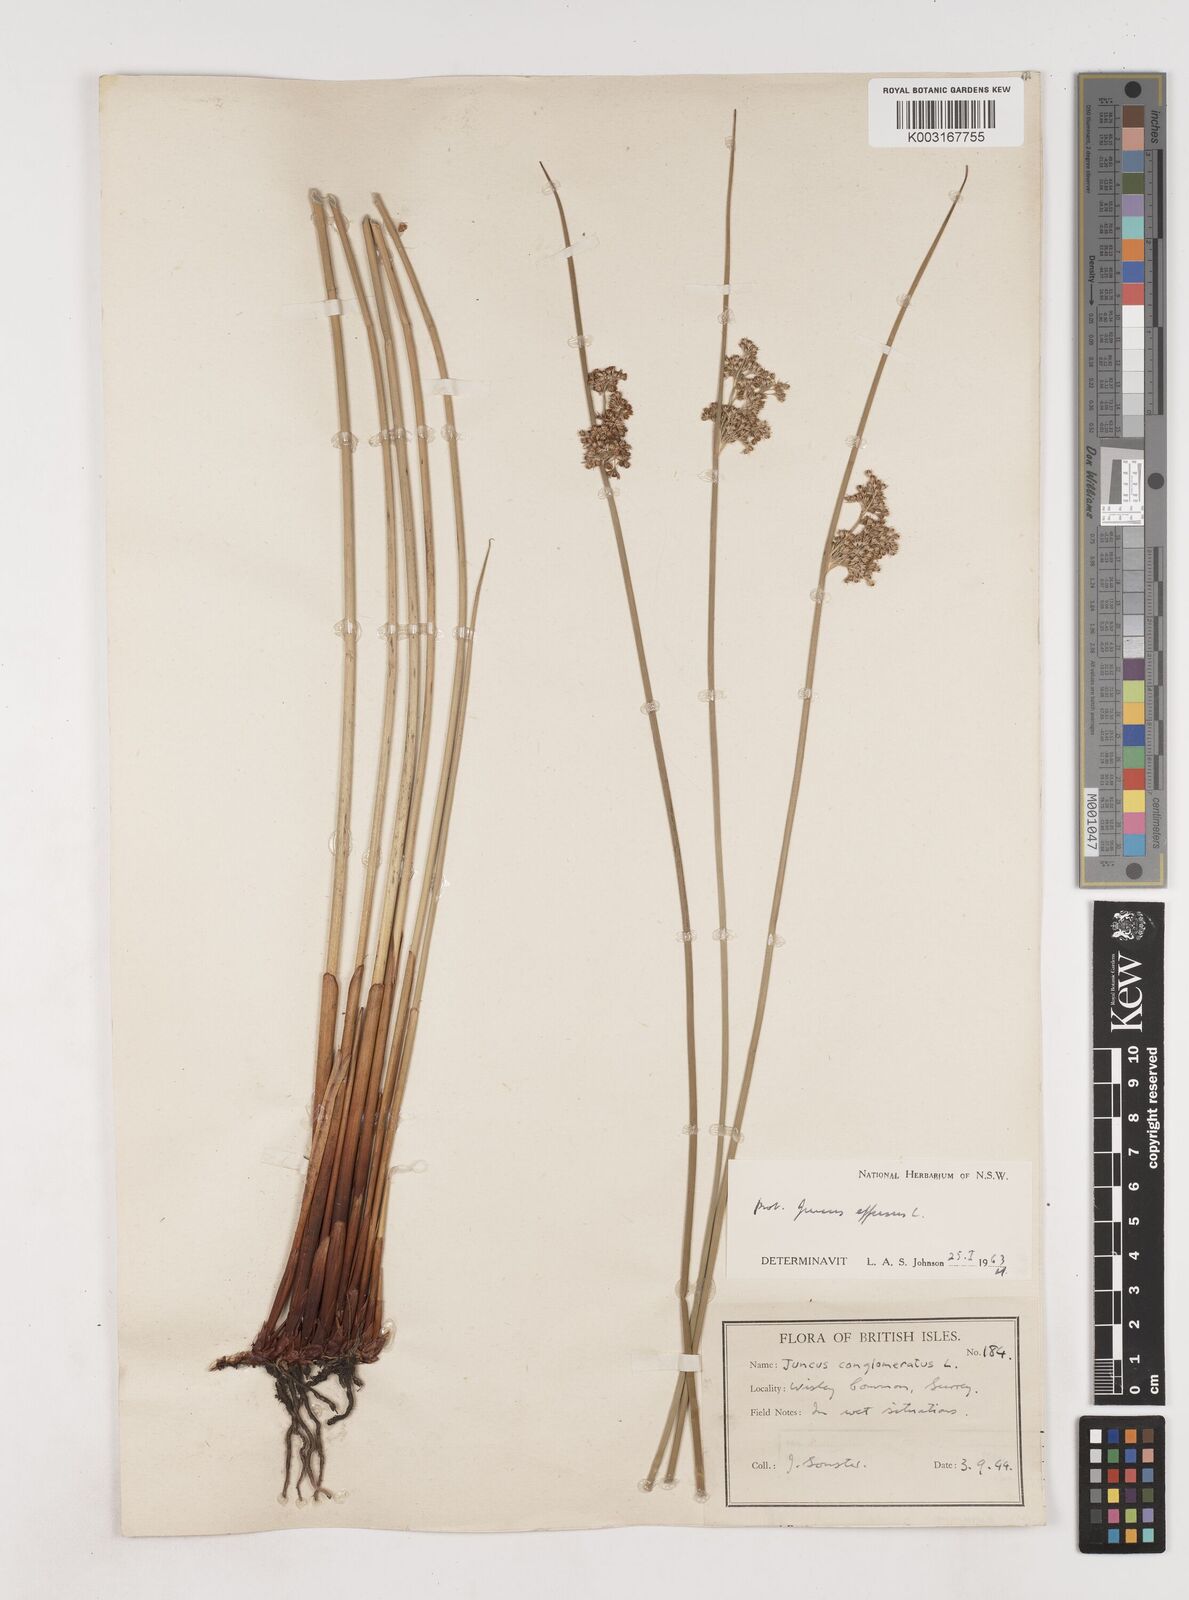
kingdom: Plantae
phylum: Tracheophyta
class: Liliopsida
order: Poales
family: Juncaceae
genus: Juncus
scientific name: Juncus effusus
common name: Soft rush
